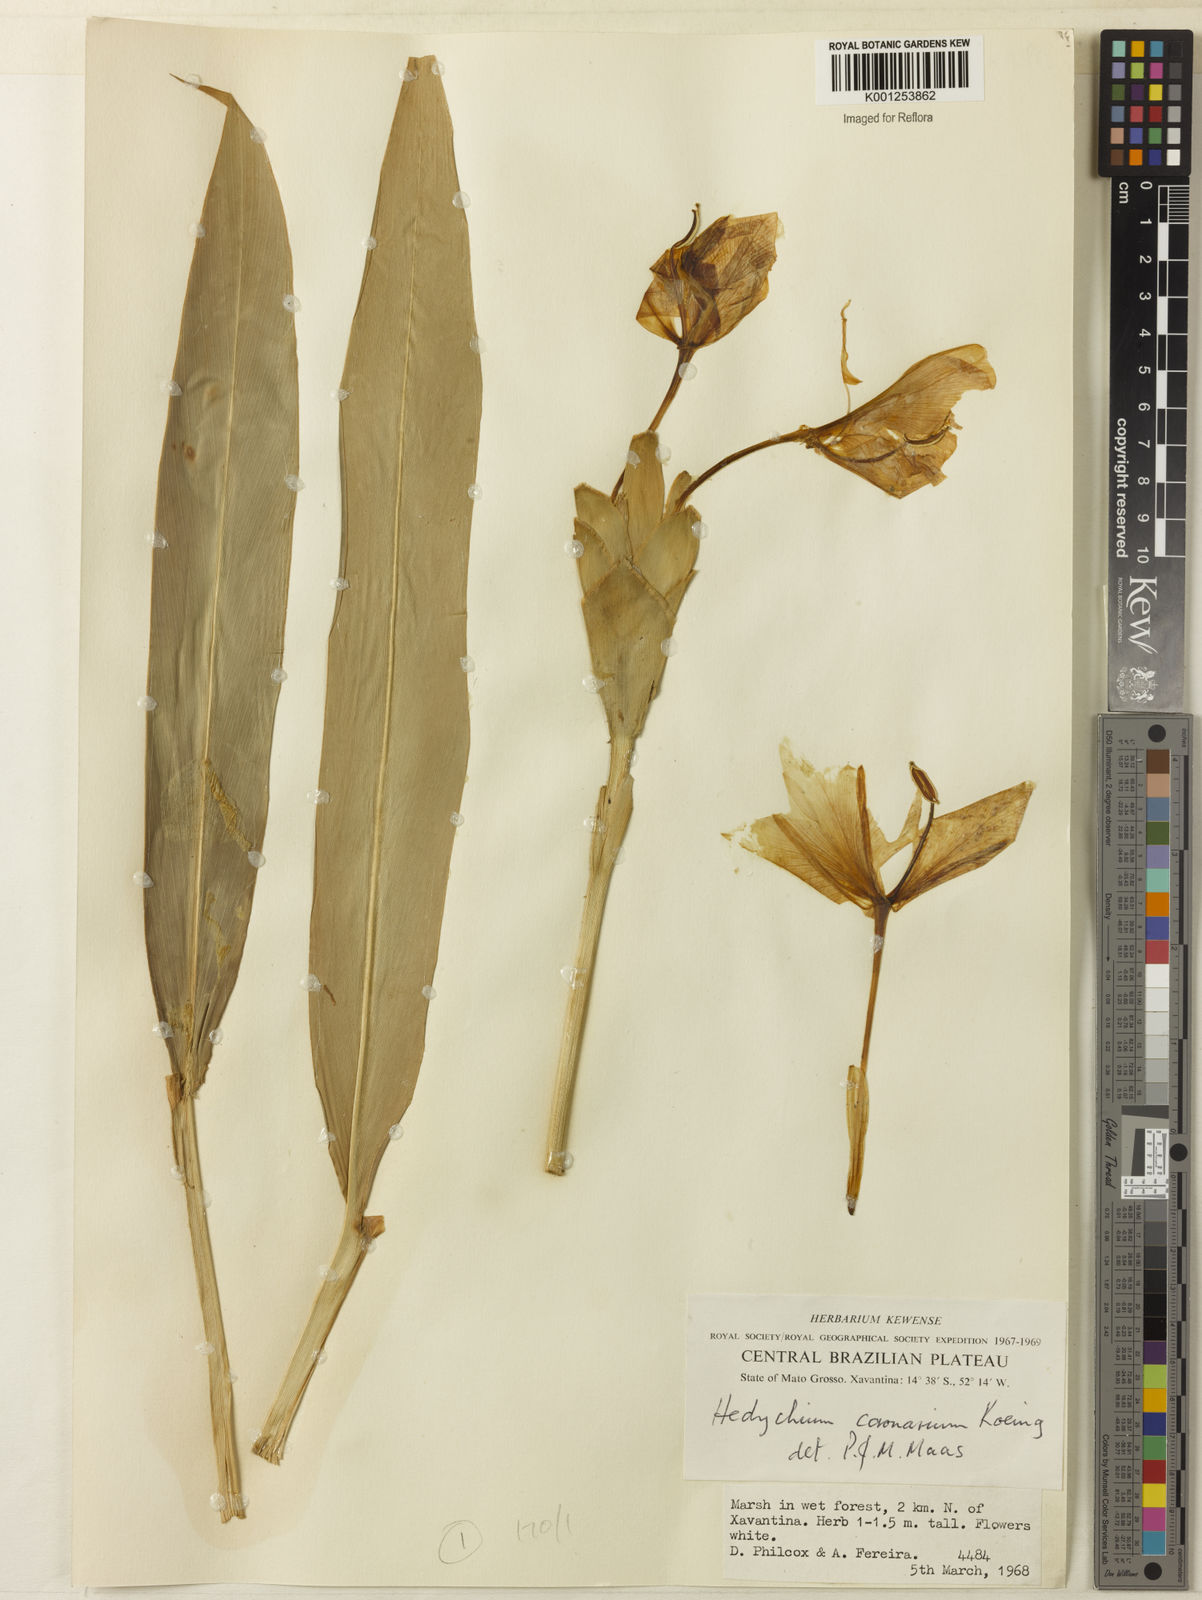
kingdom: Plantae
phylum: Tracheophyta
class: Liliopsida
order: Zingiberales
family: Zingiberaceae
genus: Hedychium
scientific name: Hedychium coronarium
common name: White garland-lily
